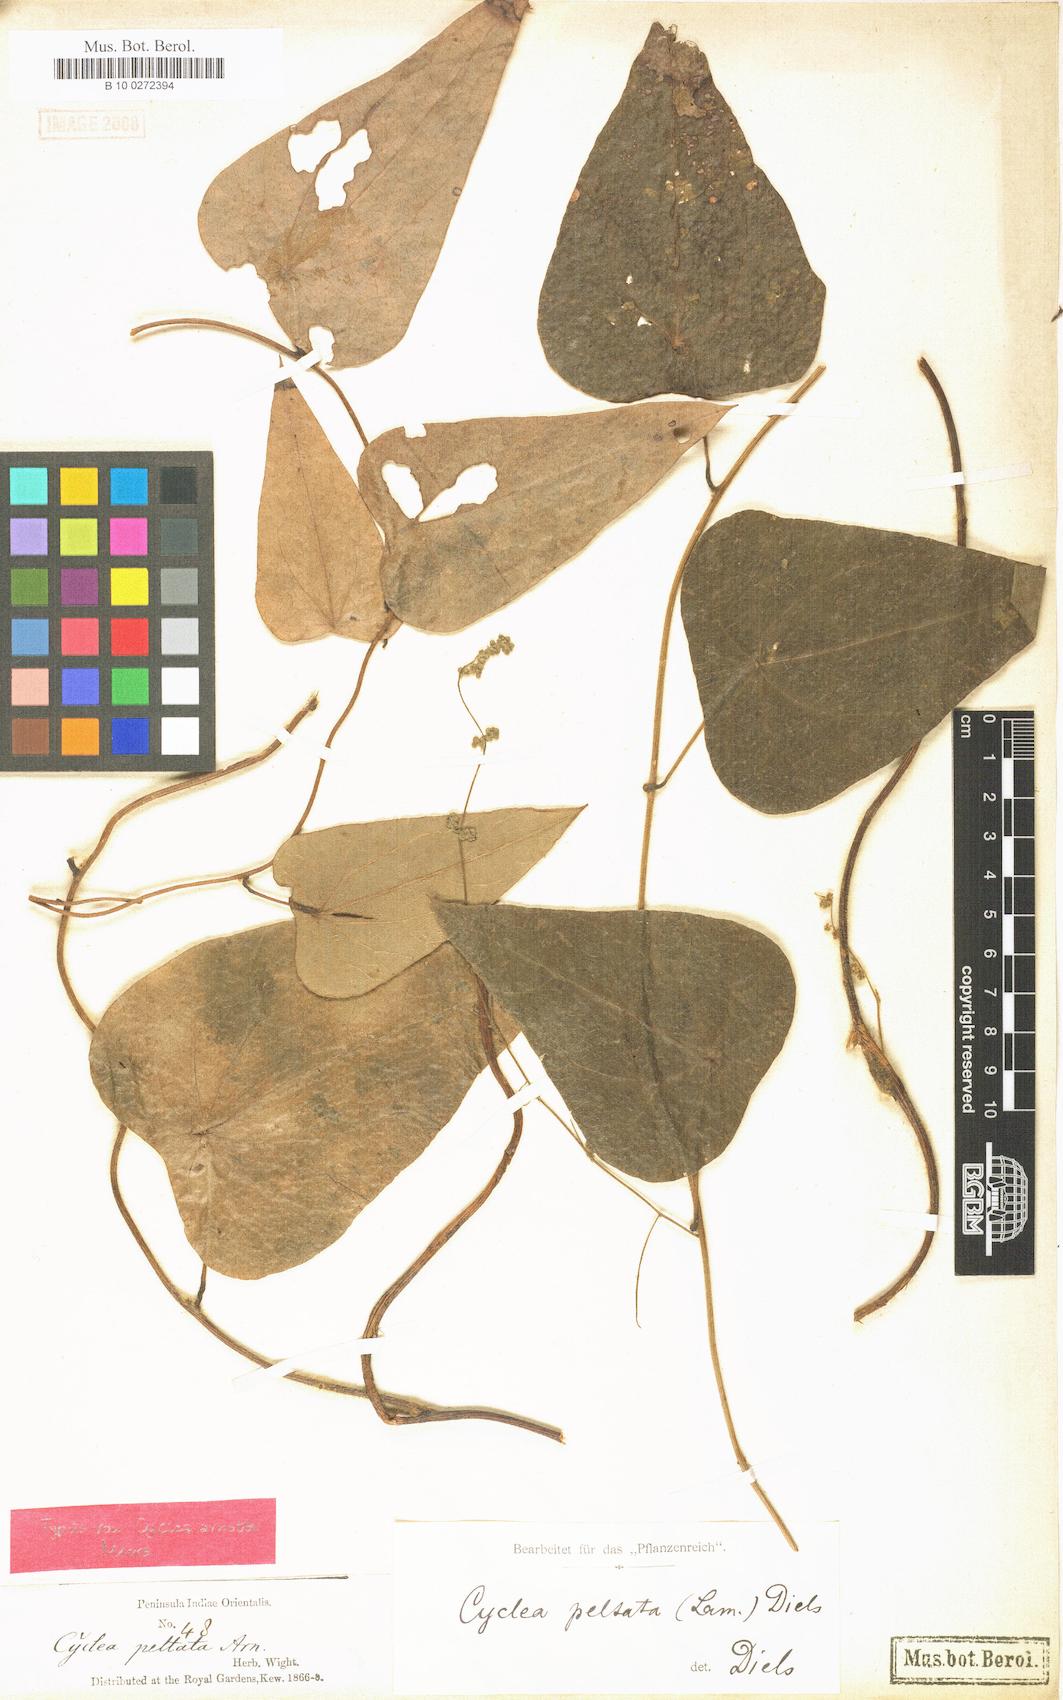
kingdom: Plantae
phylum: Tracheophyta
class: Magnoliopsida
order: Ranunculales
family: Menispermaceae
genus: Cyclea
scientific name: Cyclea peltata
